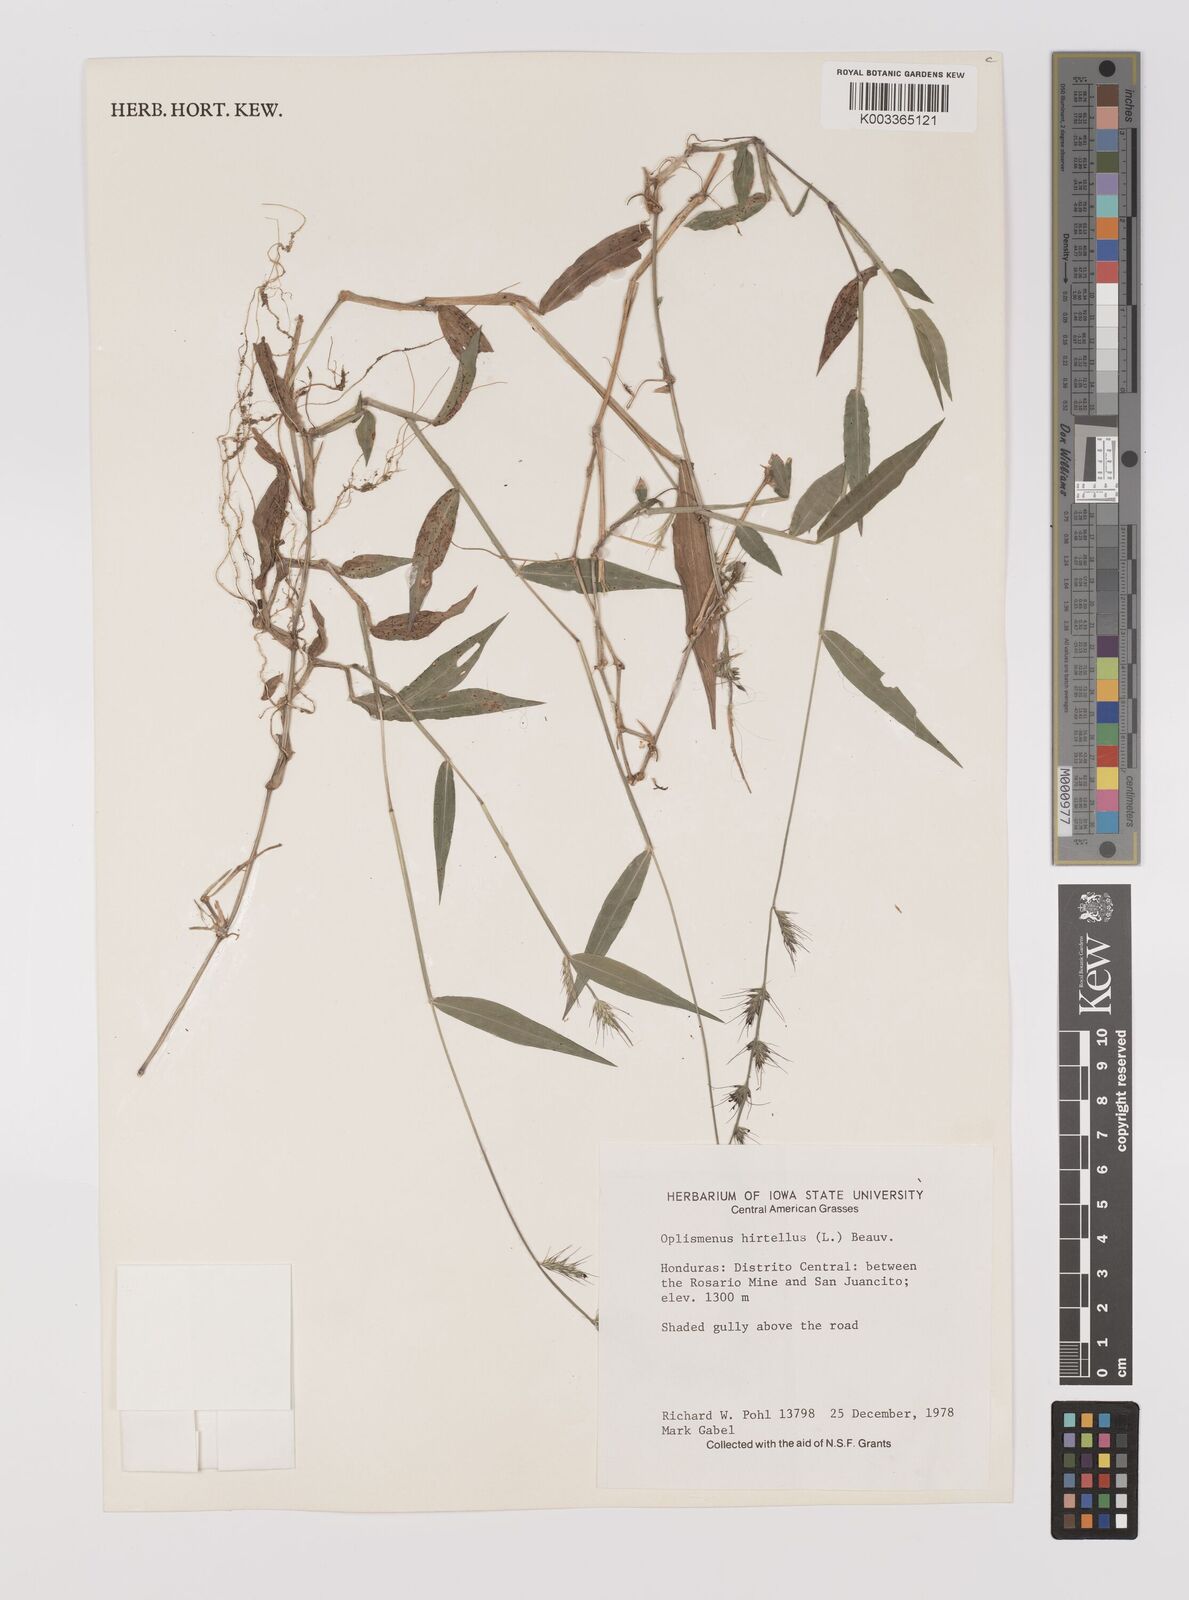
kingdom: Plantae
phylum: Tracheophyta
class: Liliopsida
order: Poales
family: Poaceae
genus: Oplismenus
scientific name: Oplismenus hirtellus
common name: Basketgrass
